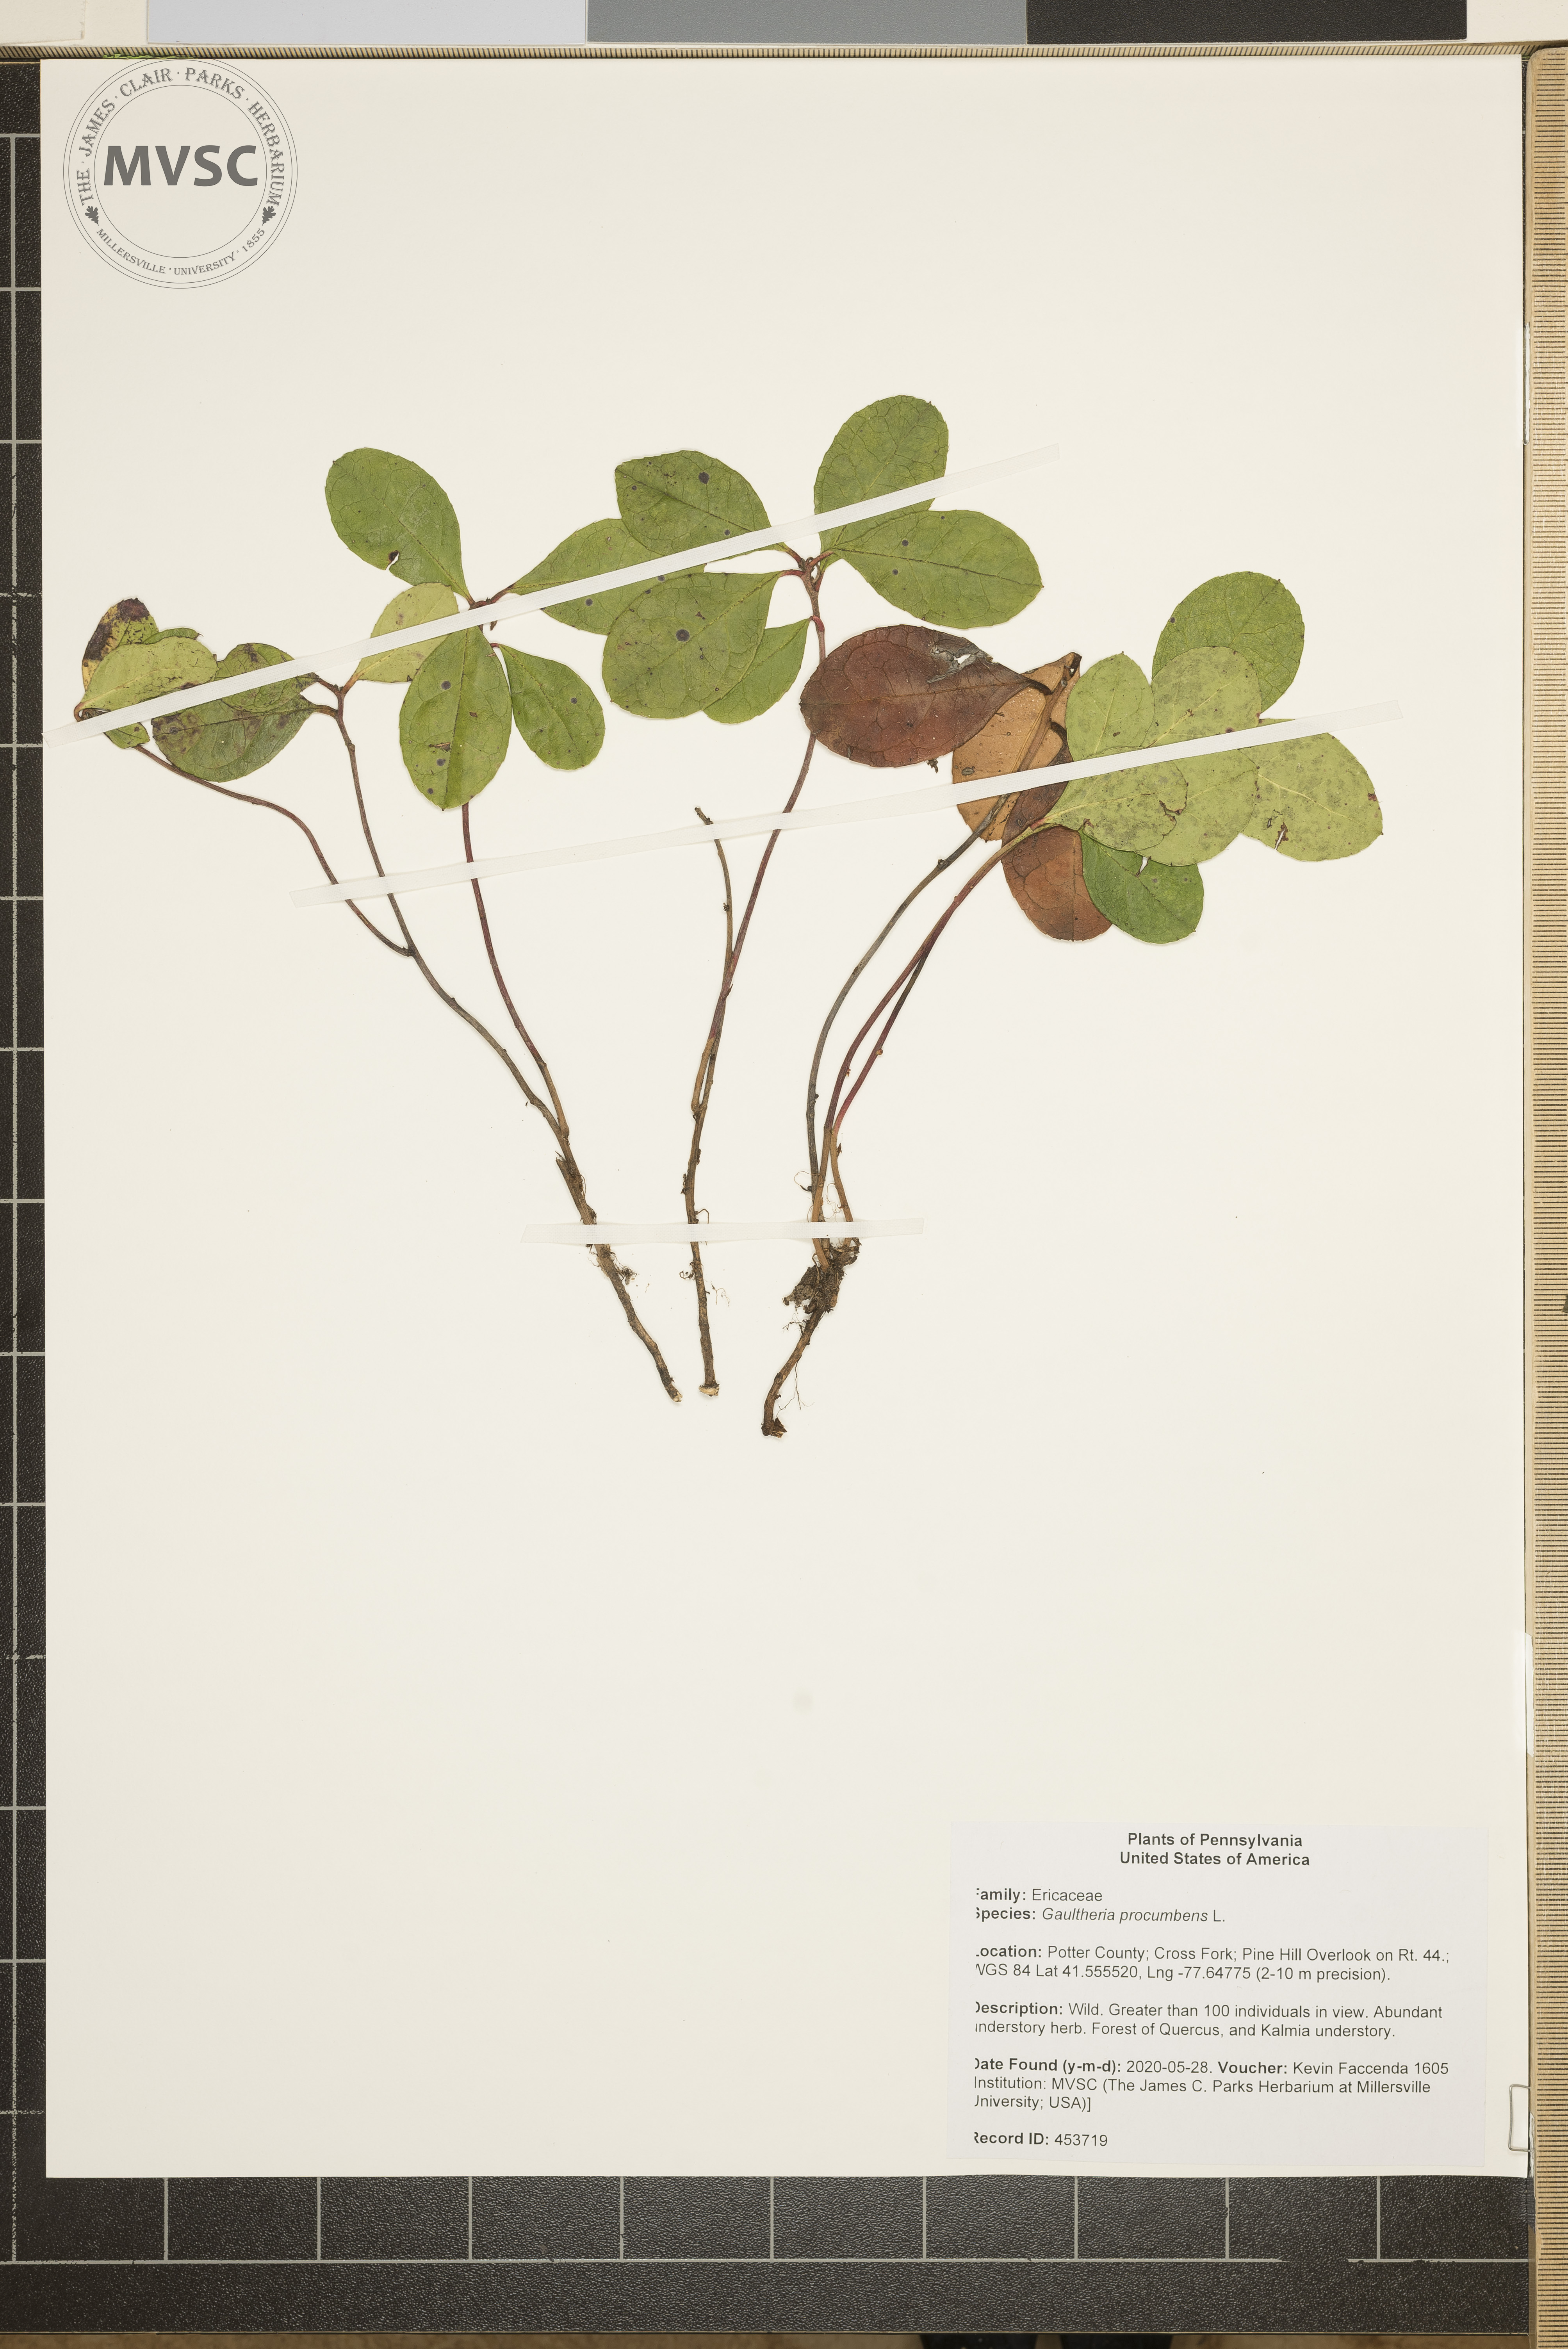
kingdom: Plantae
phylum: Tracheophyta
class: Magnoliopsida
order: Ericales
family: Ericaceae
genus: Gaultheria
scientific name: Gaultheria procumbens
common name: Checkerberry
